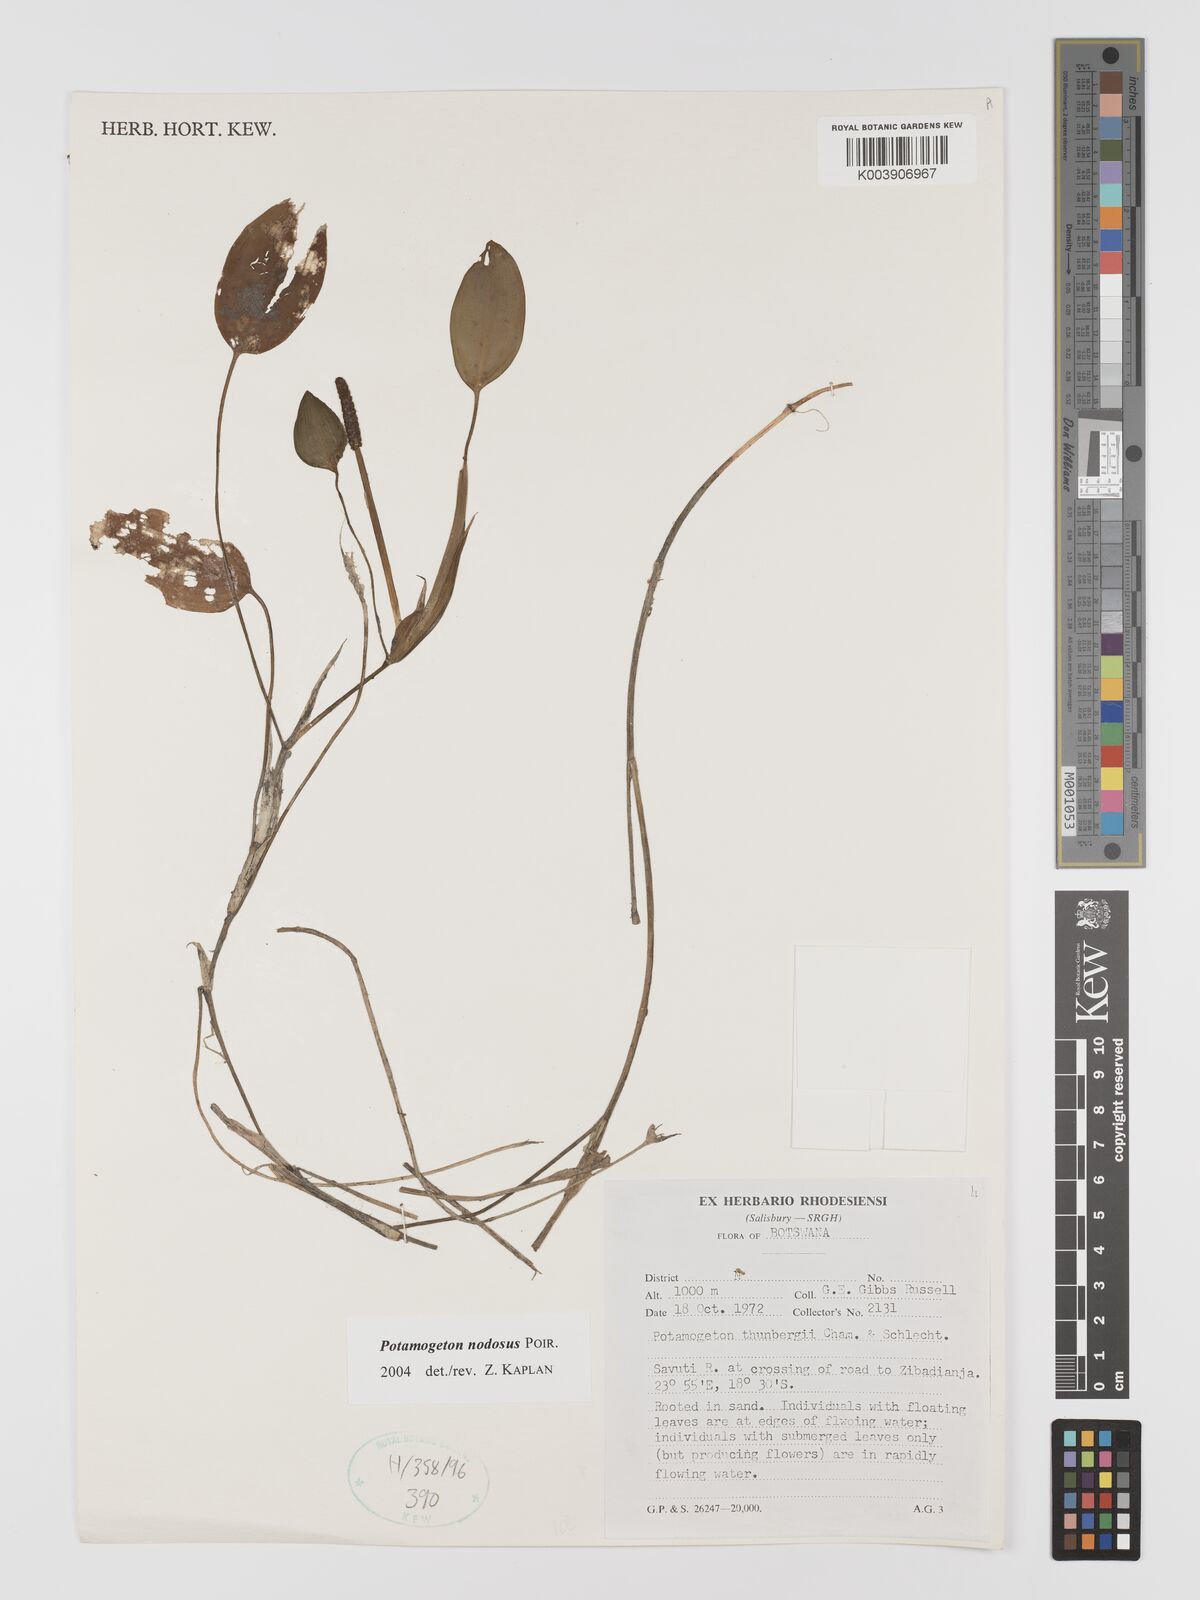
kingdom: Plantae
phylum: Tracheophyta
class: Liliopsida
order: Alismatales
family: Potamogetonaceae
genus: Potamogeton
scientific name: Potamogeton nodosus
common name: Loddon pondweed
